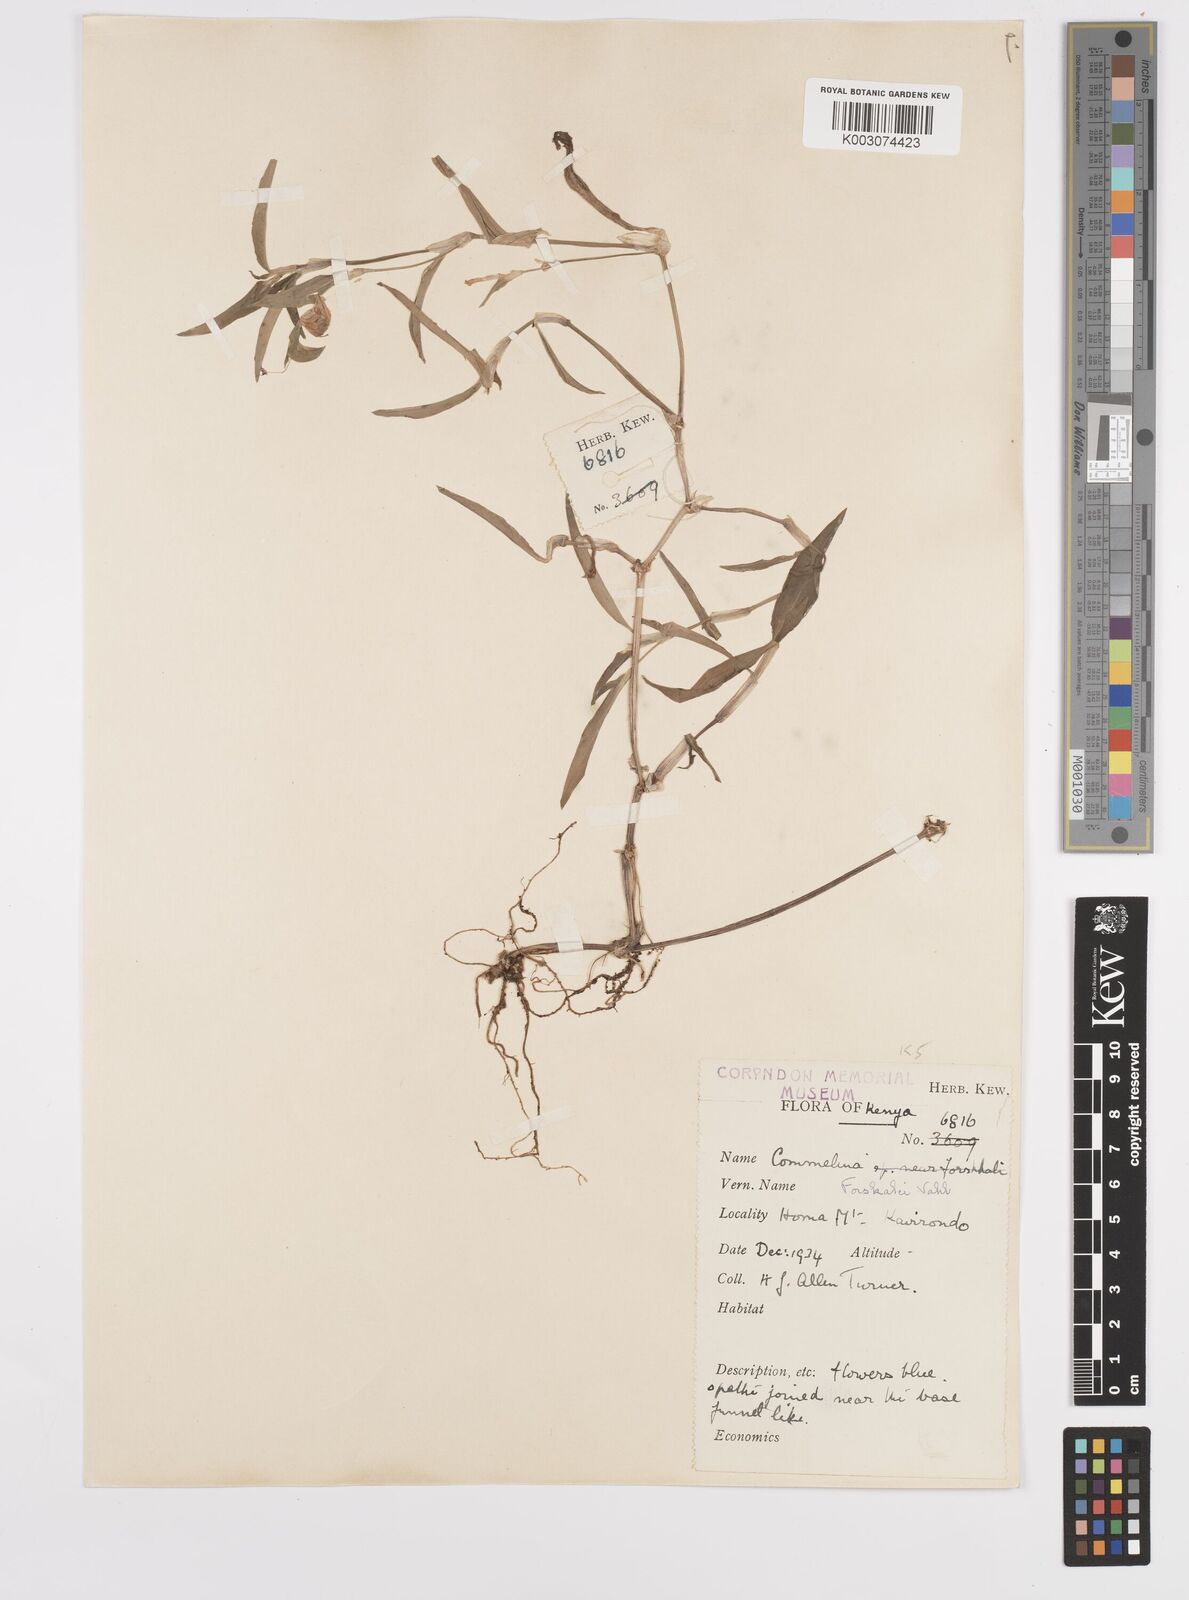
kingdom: Plantae
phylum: Tracheophyta
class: Liliopsida
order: Commelinales
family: Commelinaceae
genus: Commelina
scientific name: Commelina forskaolii
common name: Rat's ear
